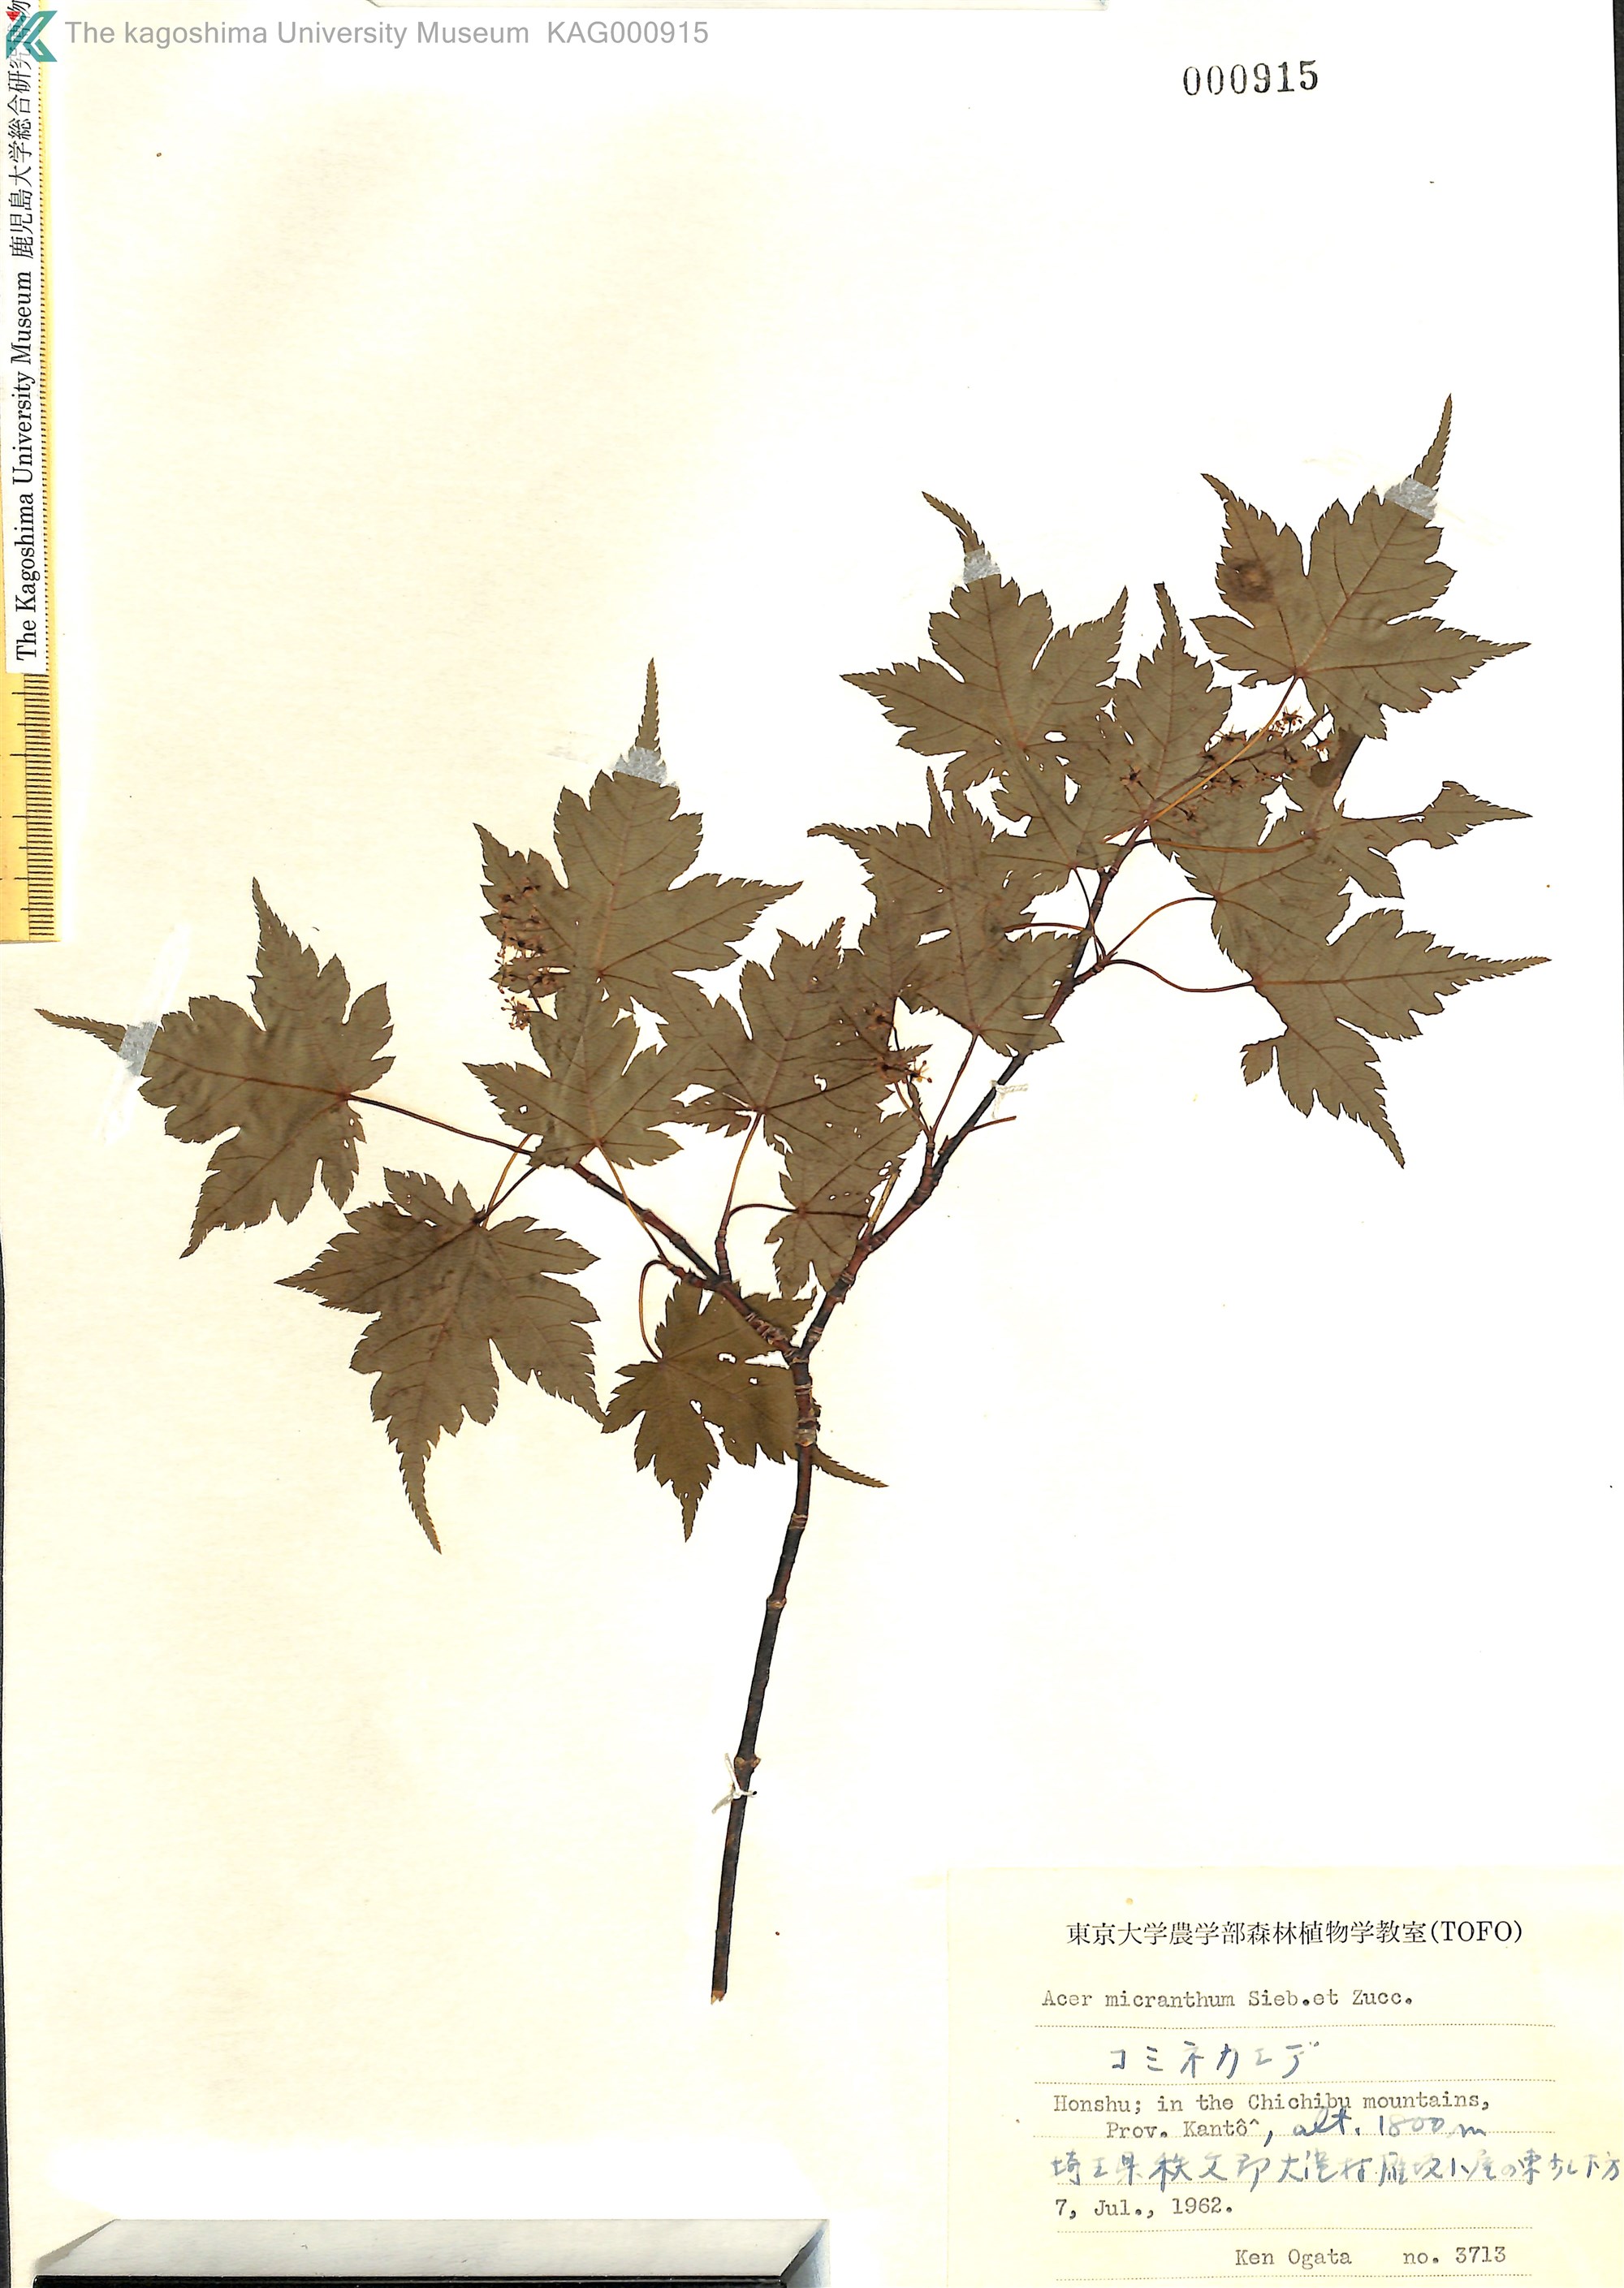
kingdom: Plantae
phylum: Tracheophyta
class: Magnoliopsida
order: Sapindales
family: Sapindaceae
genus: Acer
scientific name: Acer micranthum
